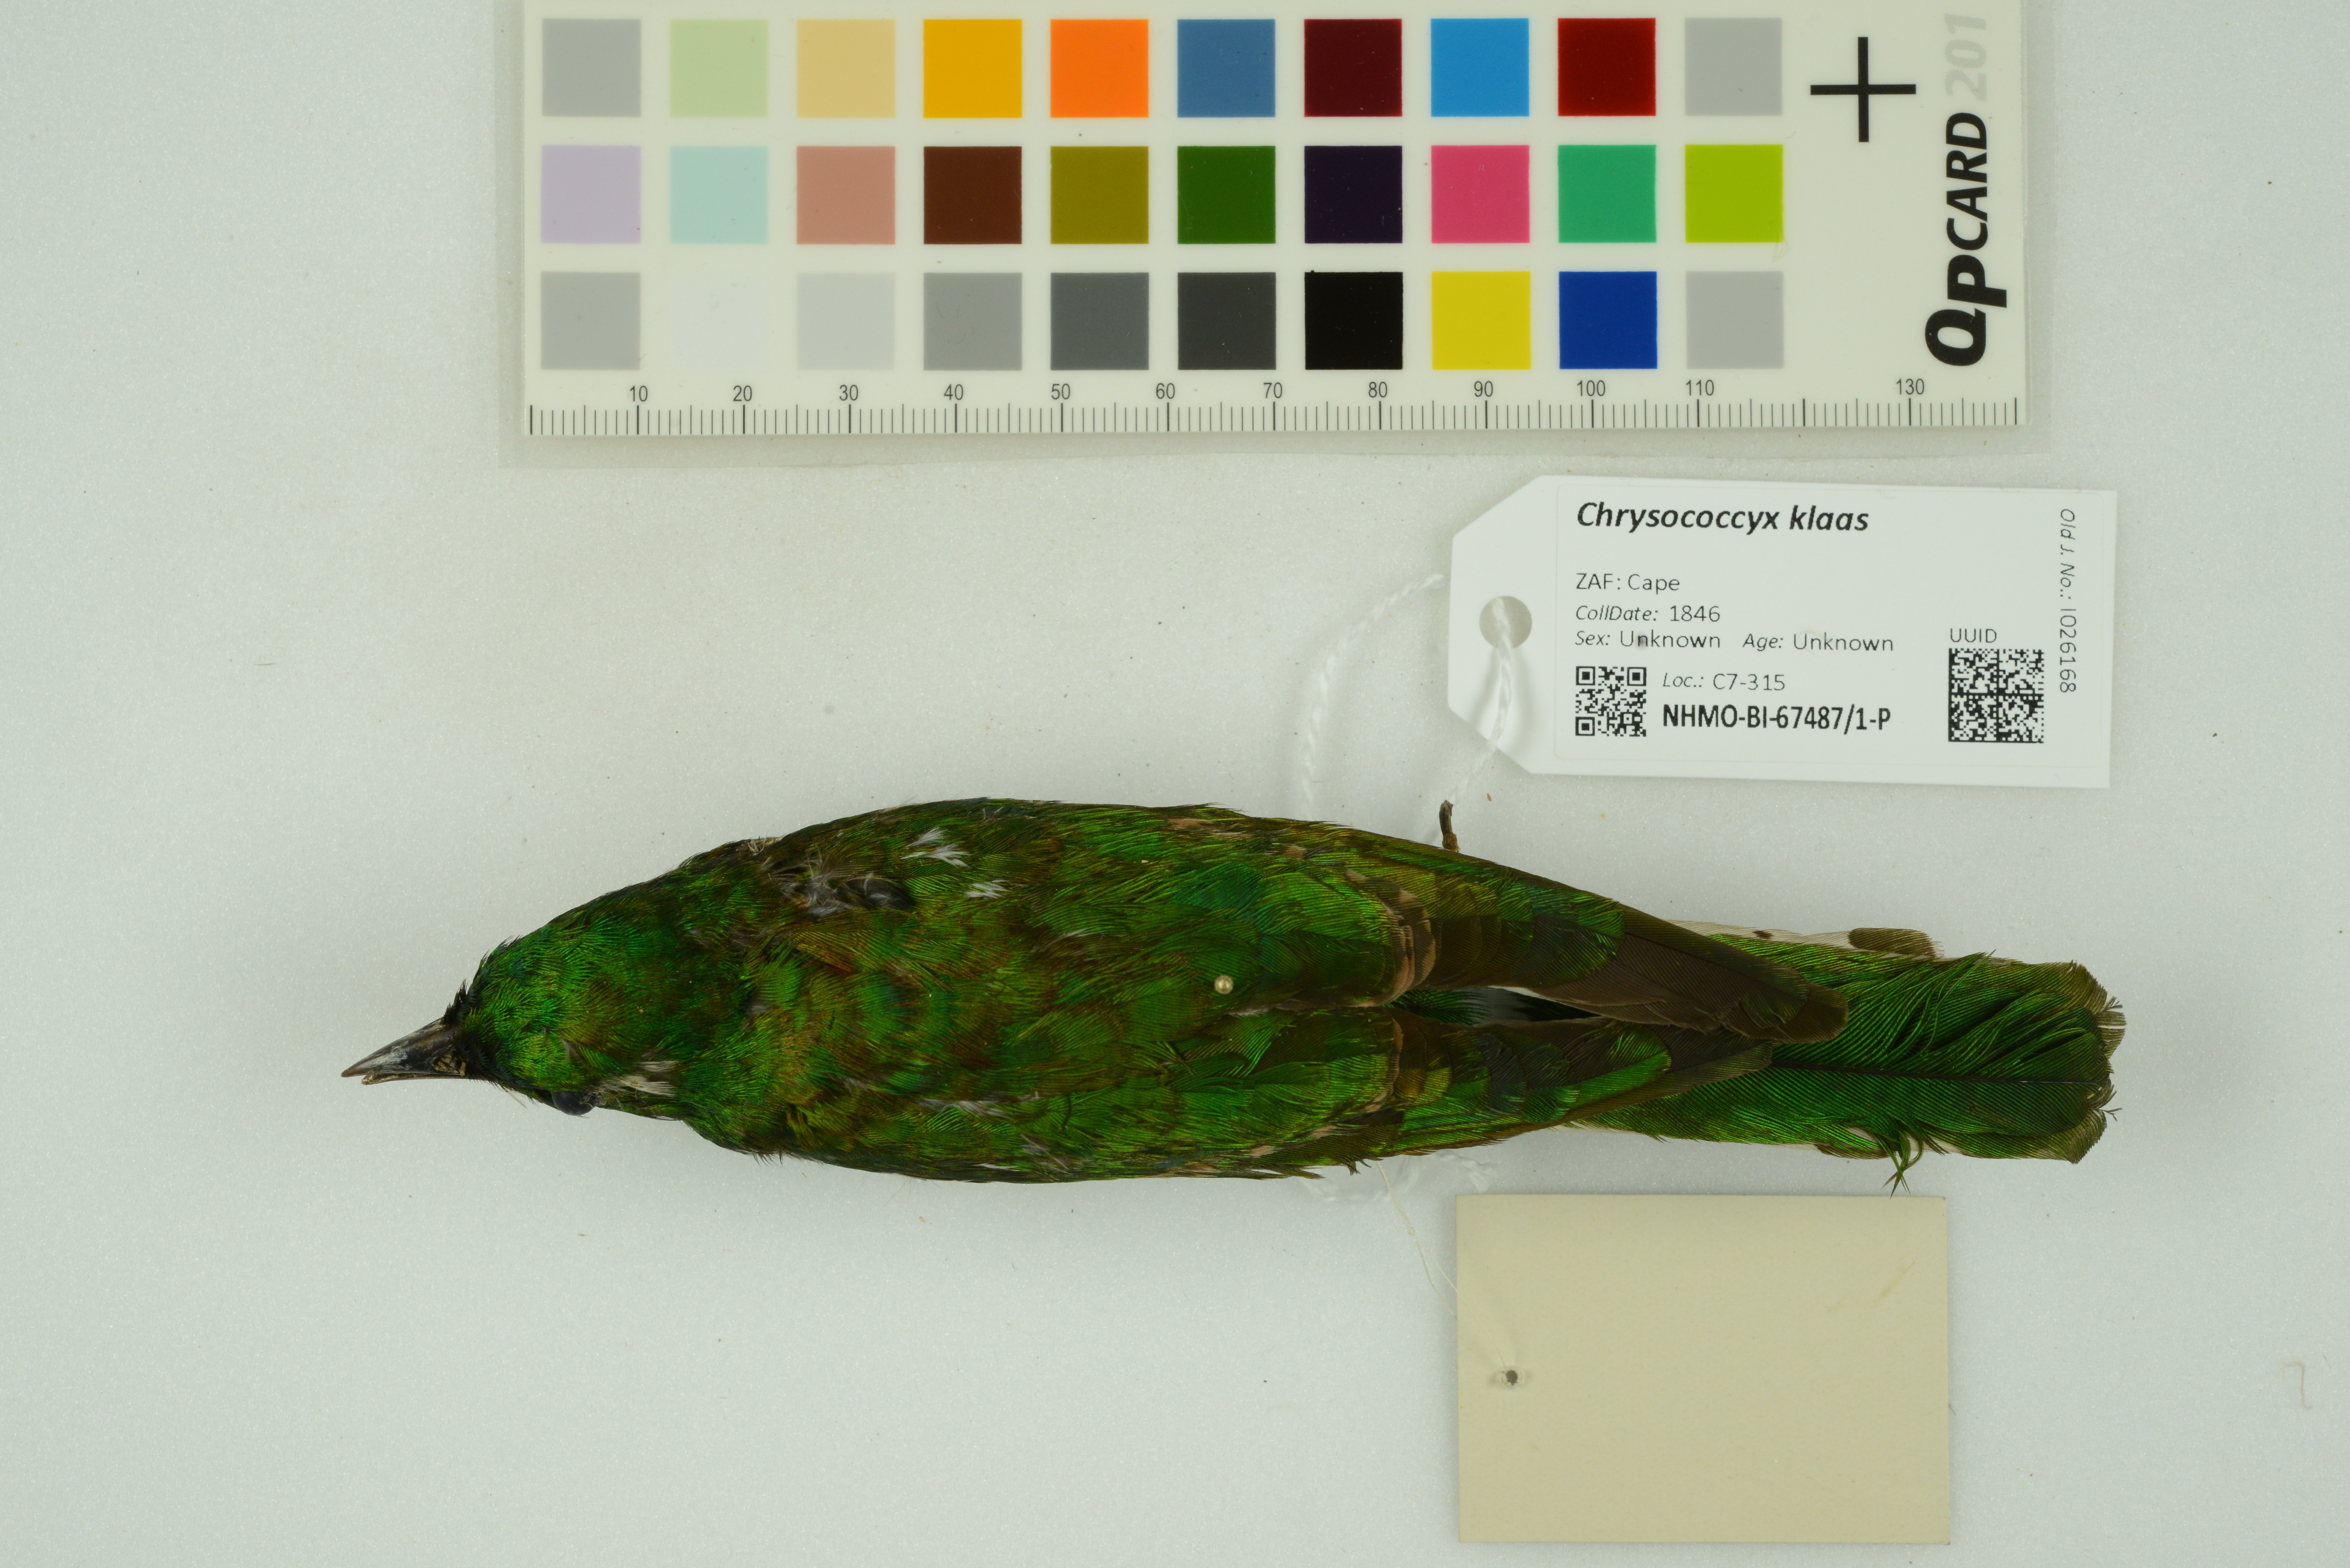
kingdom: Animalia
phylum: Chordata
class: Aves
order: Cuculiformes
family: Cuculidae
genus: Chrysococcyx
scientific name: Chrysococcyx klaas
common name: Klaas's cuckoo
